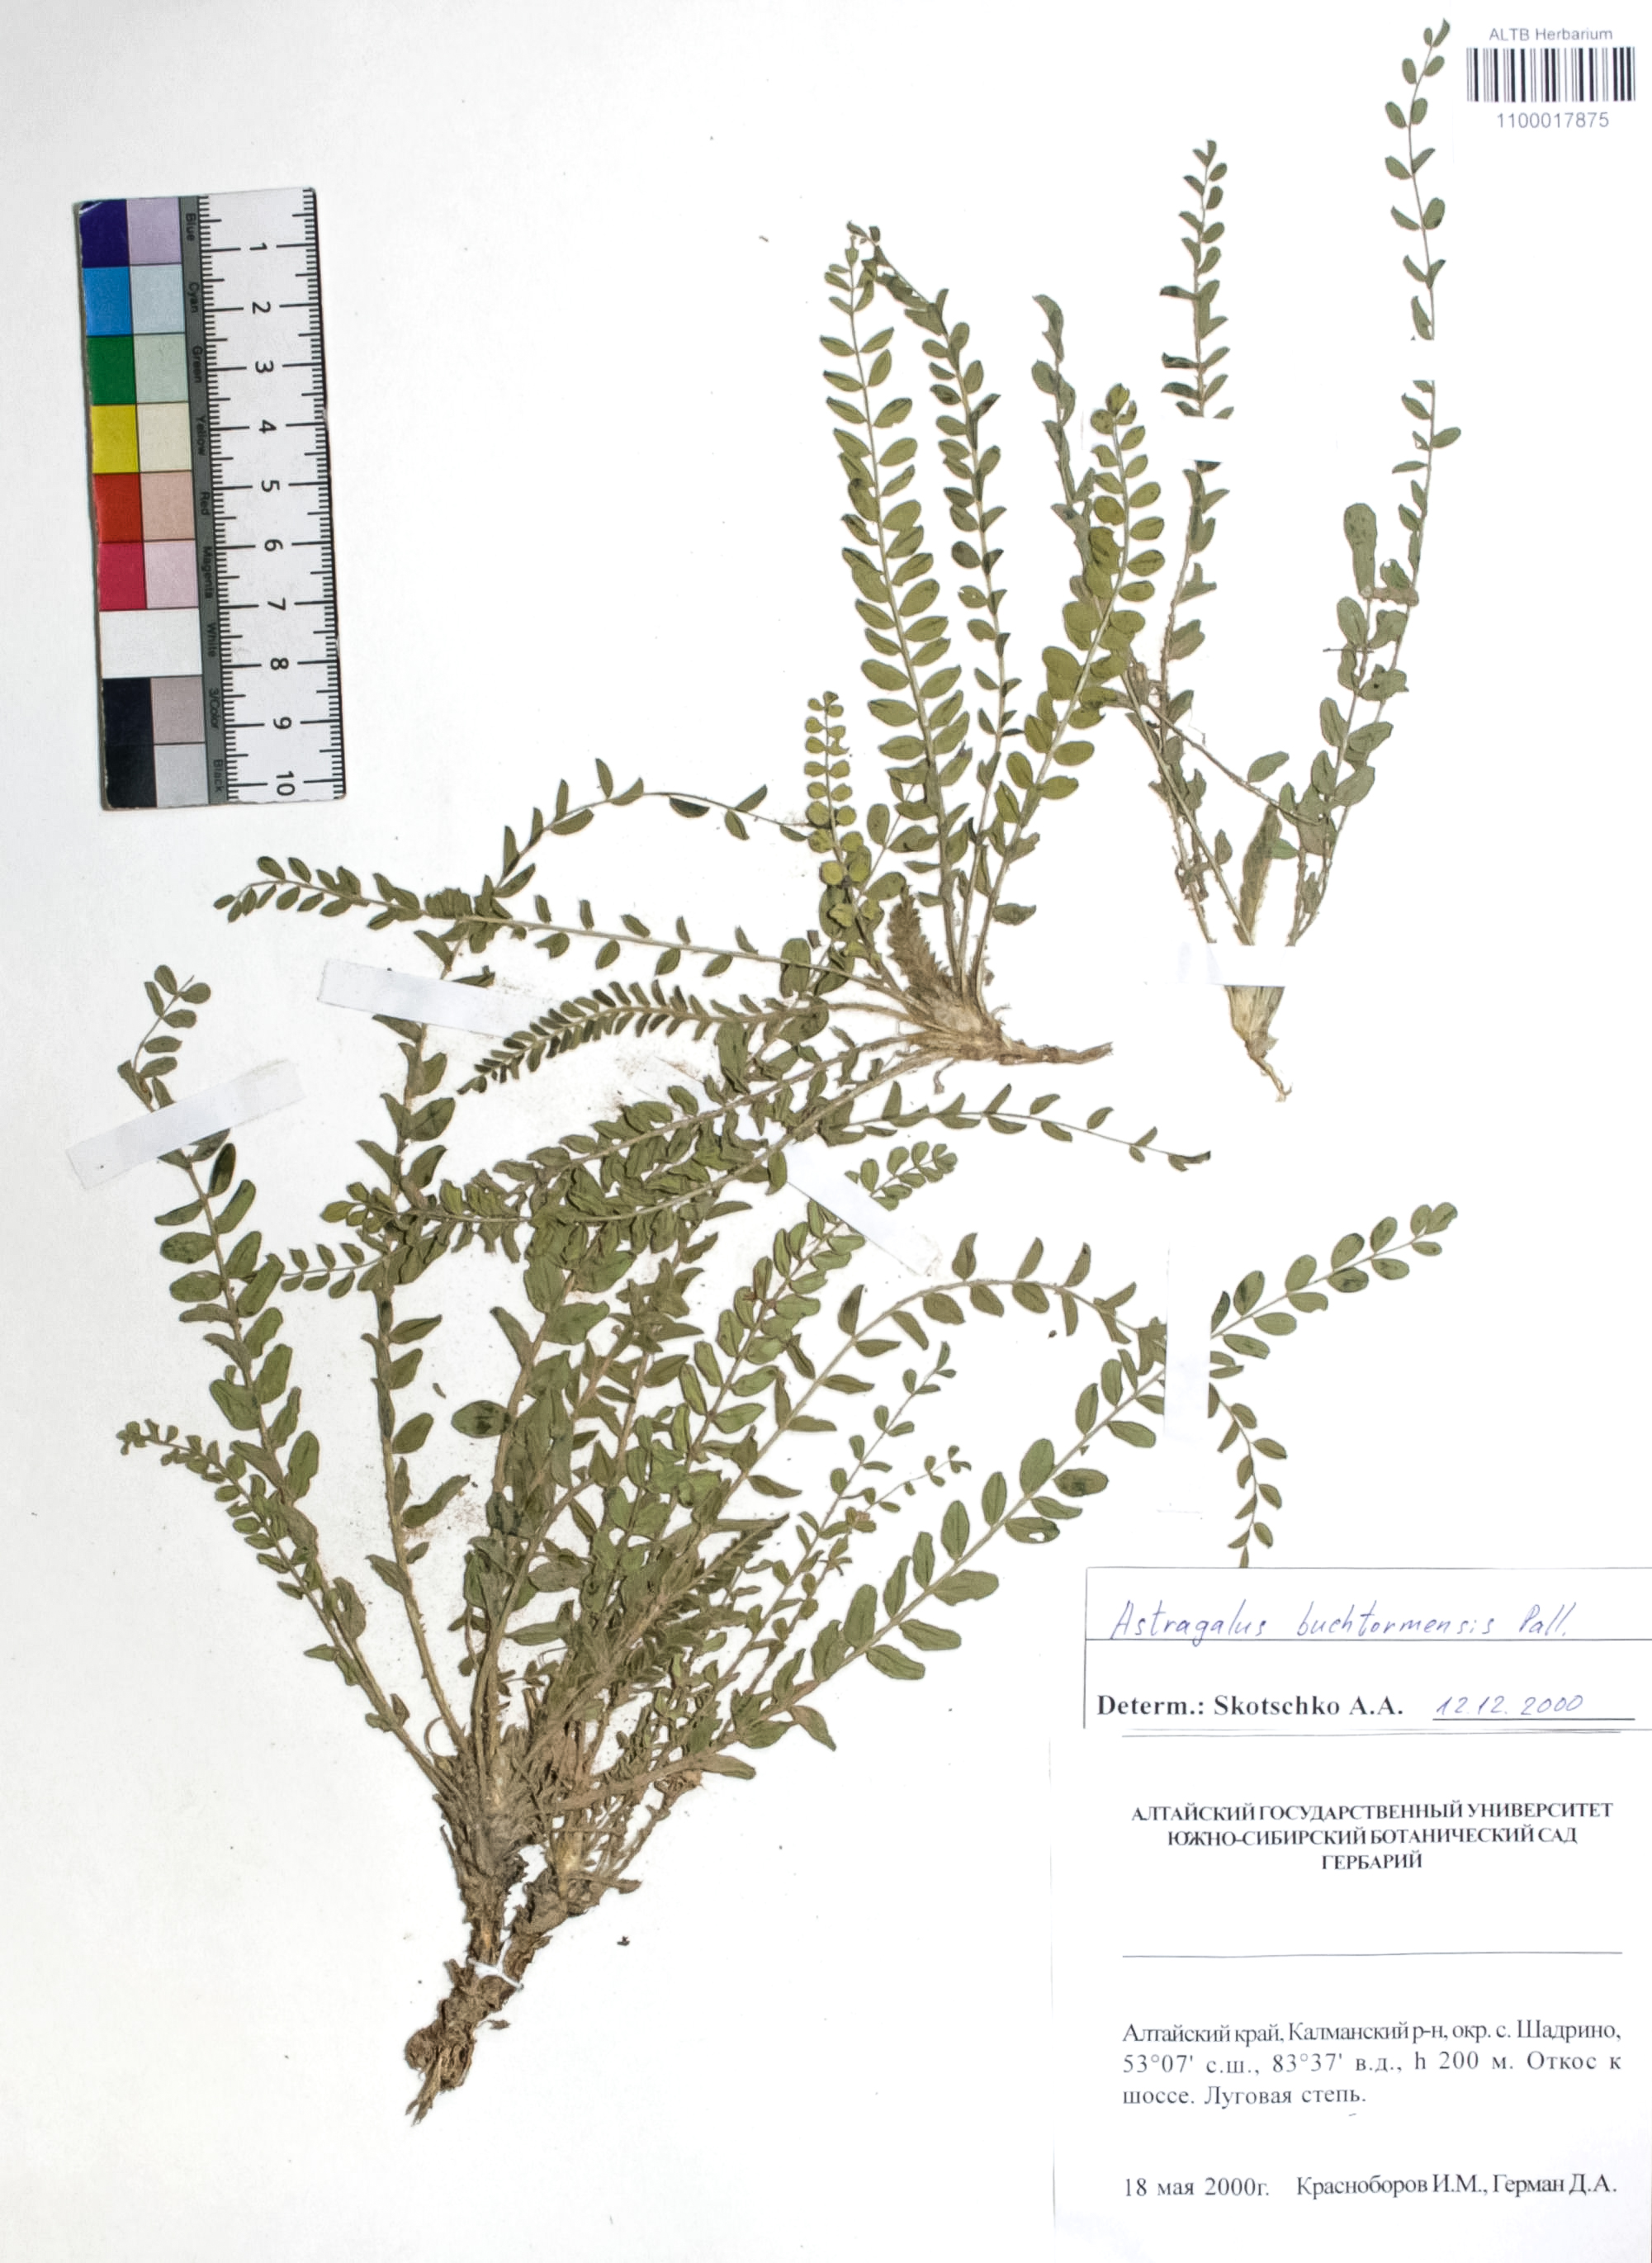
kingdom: Plantae
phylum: Tracheophyta
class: Magnoliopsida
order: Fabales
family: Fabaceae
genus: Astragalus
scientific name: Astragalus buchtormensis
